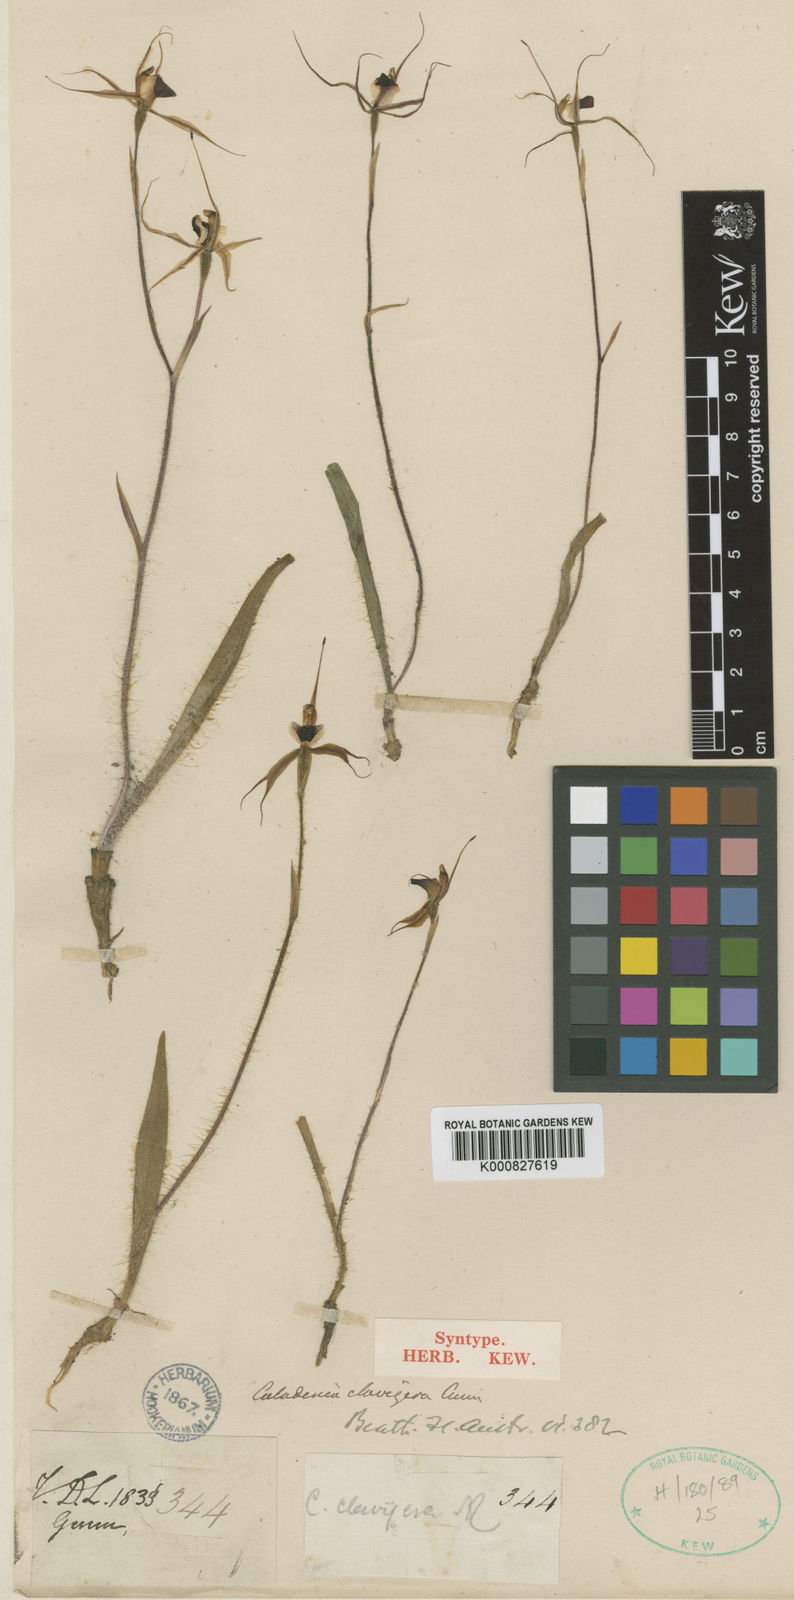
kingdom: Plantae
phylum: Tracheophyta
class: Liliopsida
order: Asparagales
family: Orchidaceae
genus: Caladenia
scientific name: Caladenia clavigera
